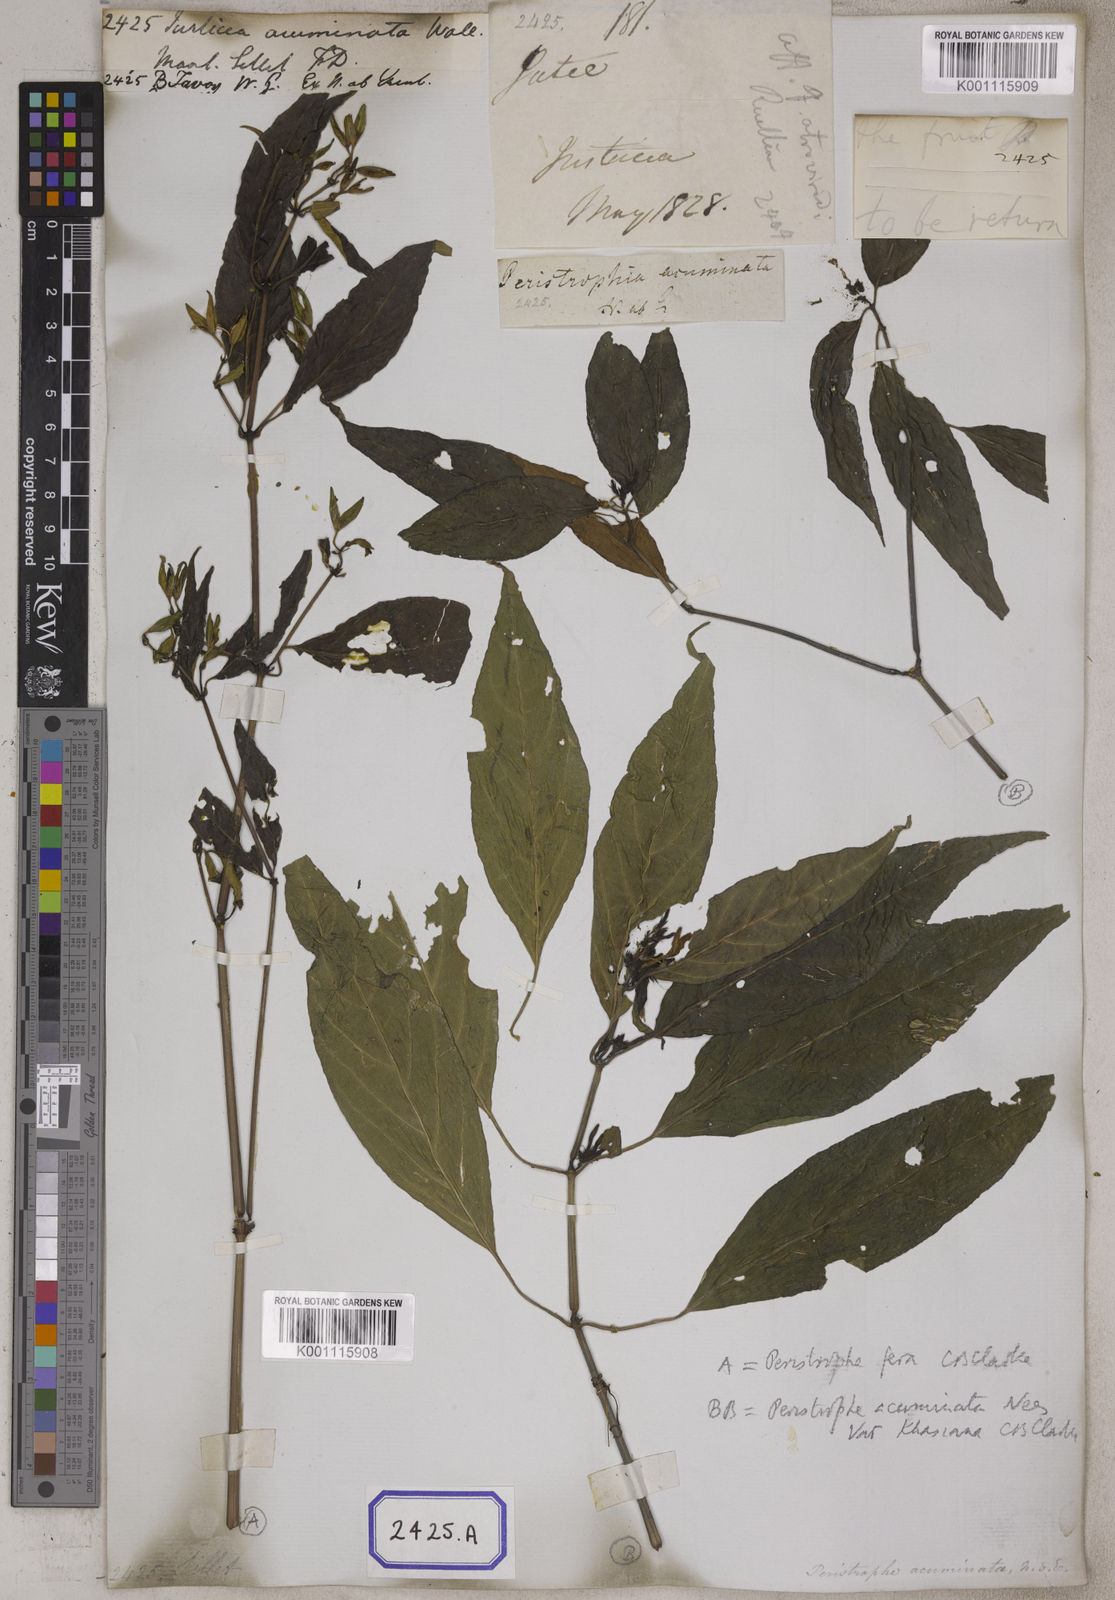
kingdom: Plantae
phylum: Tracheophyta
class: Magnoliopsida
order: Lamiales
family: Acanthaceae
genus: Dicliptera
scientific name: Dicliptera sebastinei
